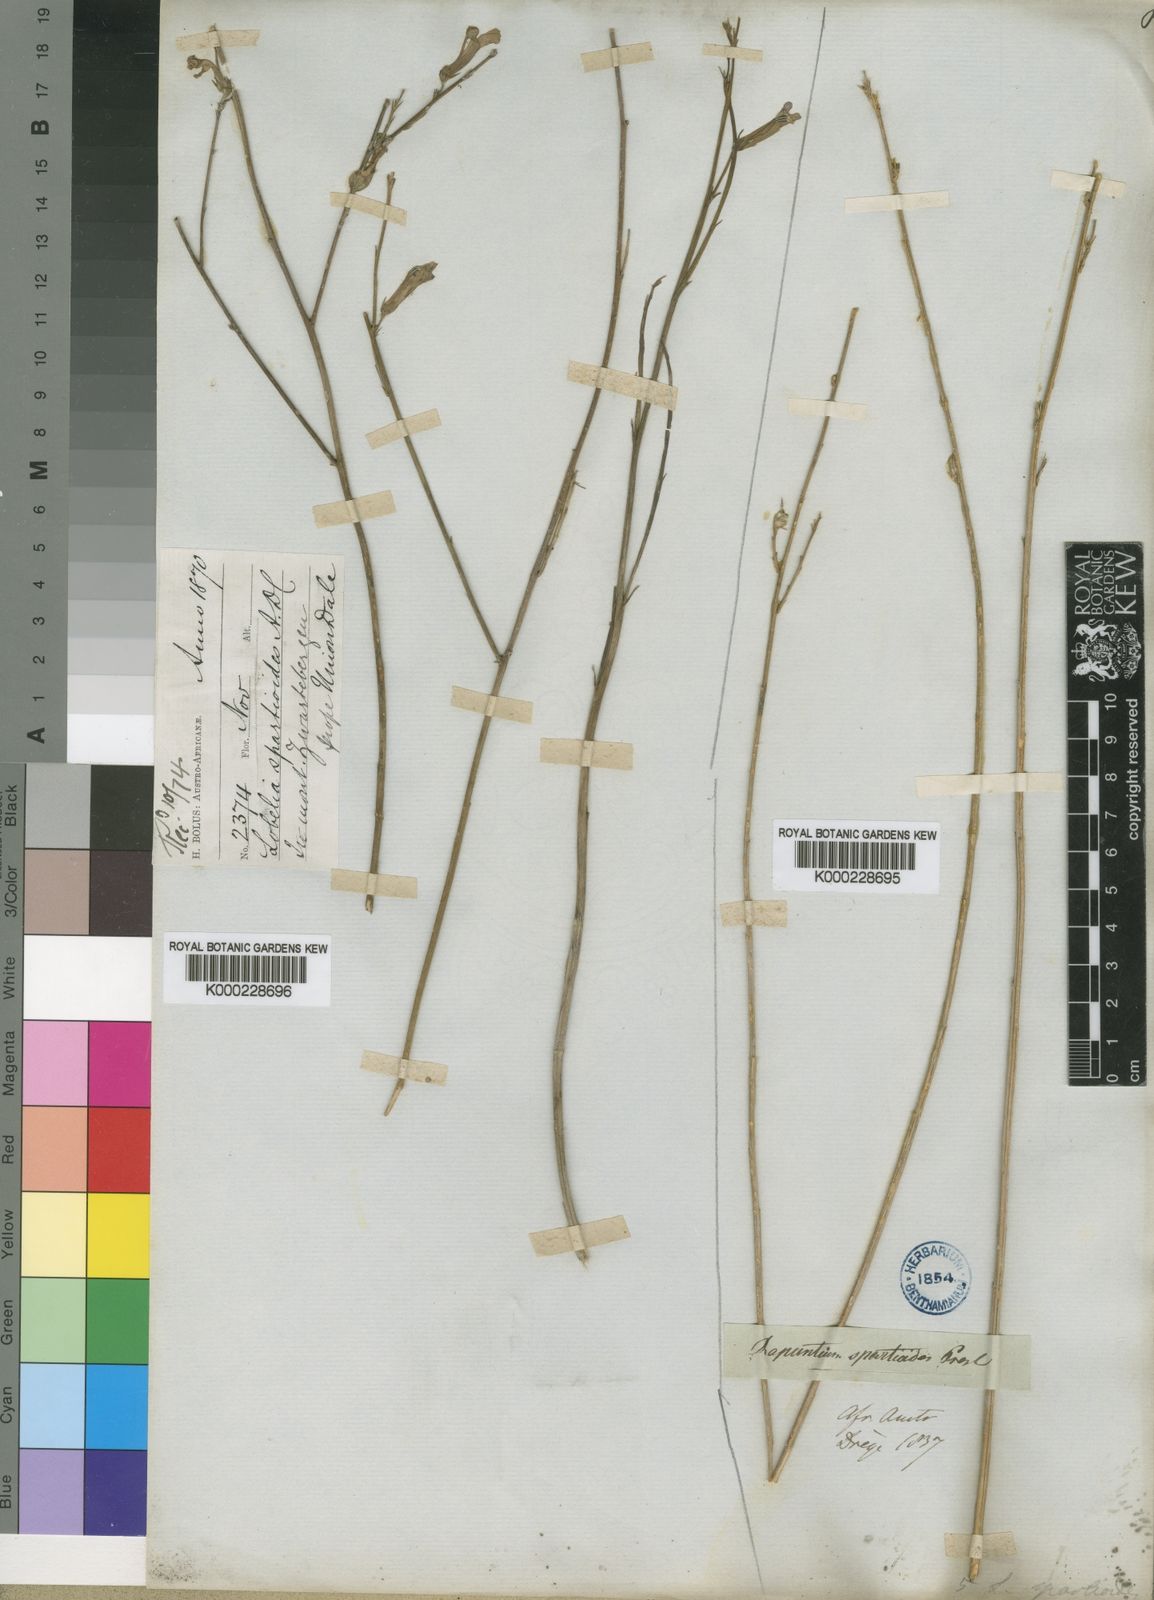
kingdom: Plantae
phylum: Tracheophyta
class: Magnoliopsida
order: Asterales
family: Campanulaceae
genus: Lobelia
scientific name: Lobelia linearis
